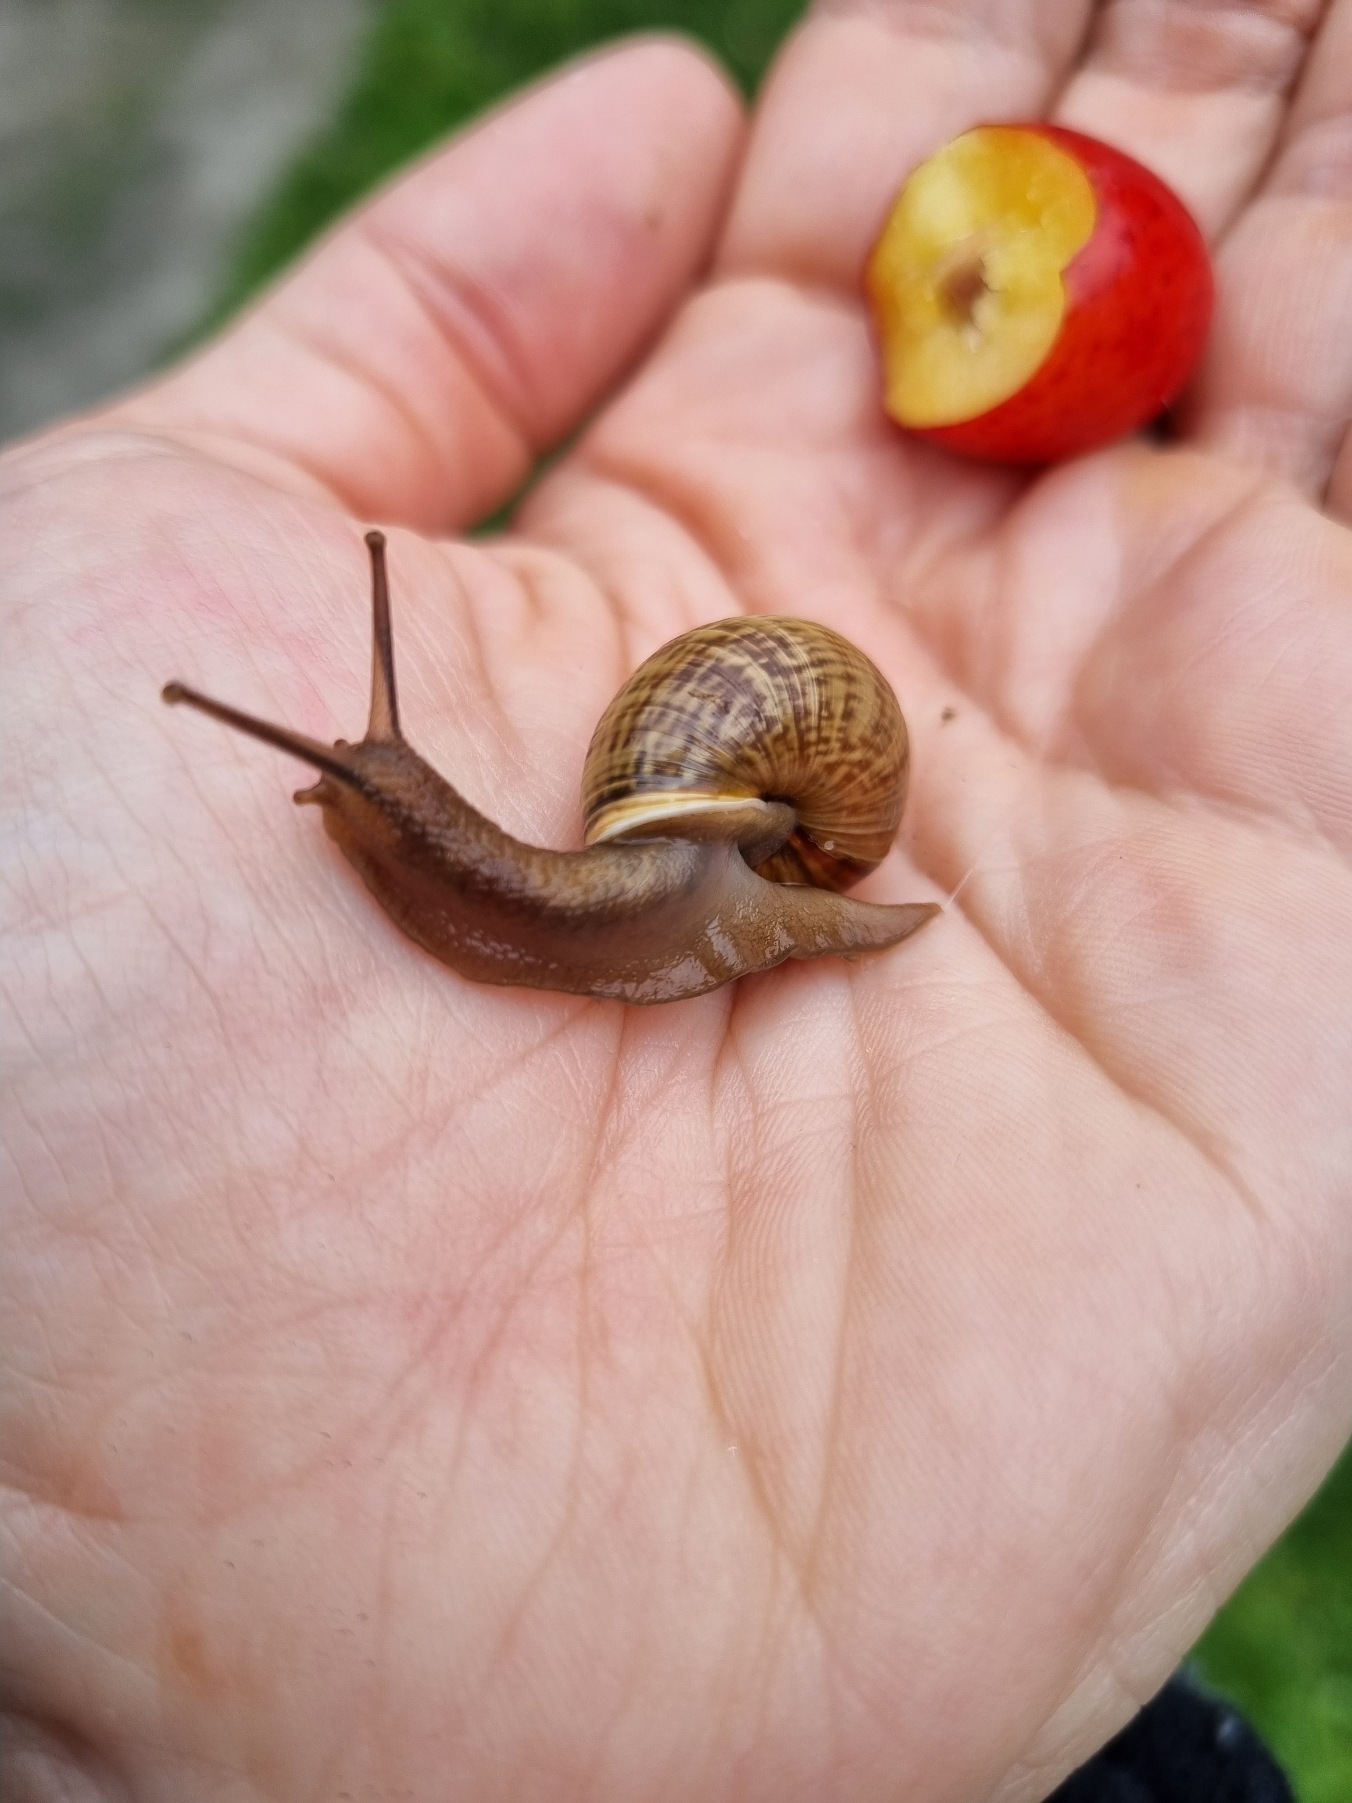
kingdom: Animalia
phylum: Mollusca
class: Gastropoda
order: Stylommatophora
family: Helicidae
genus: Arianta
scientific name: Arianta arbustorum
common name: Kratsnegl
